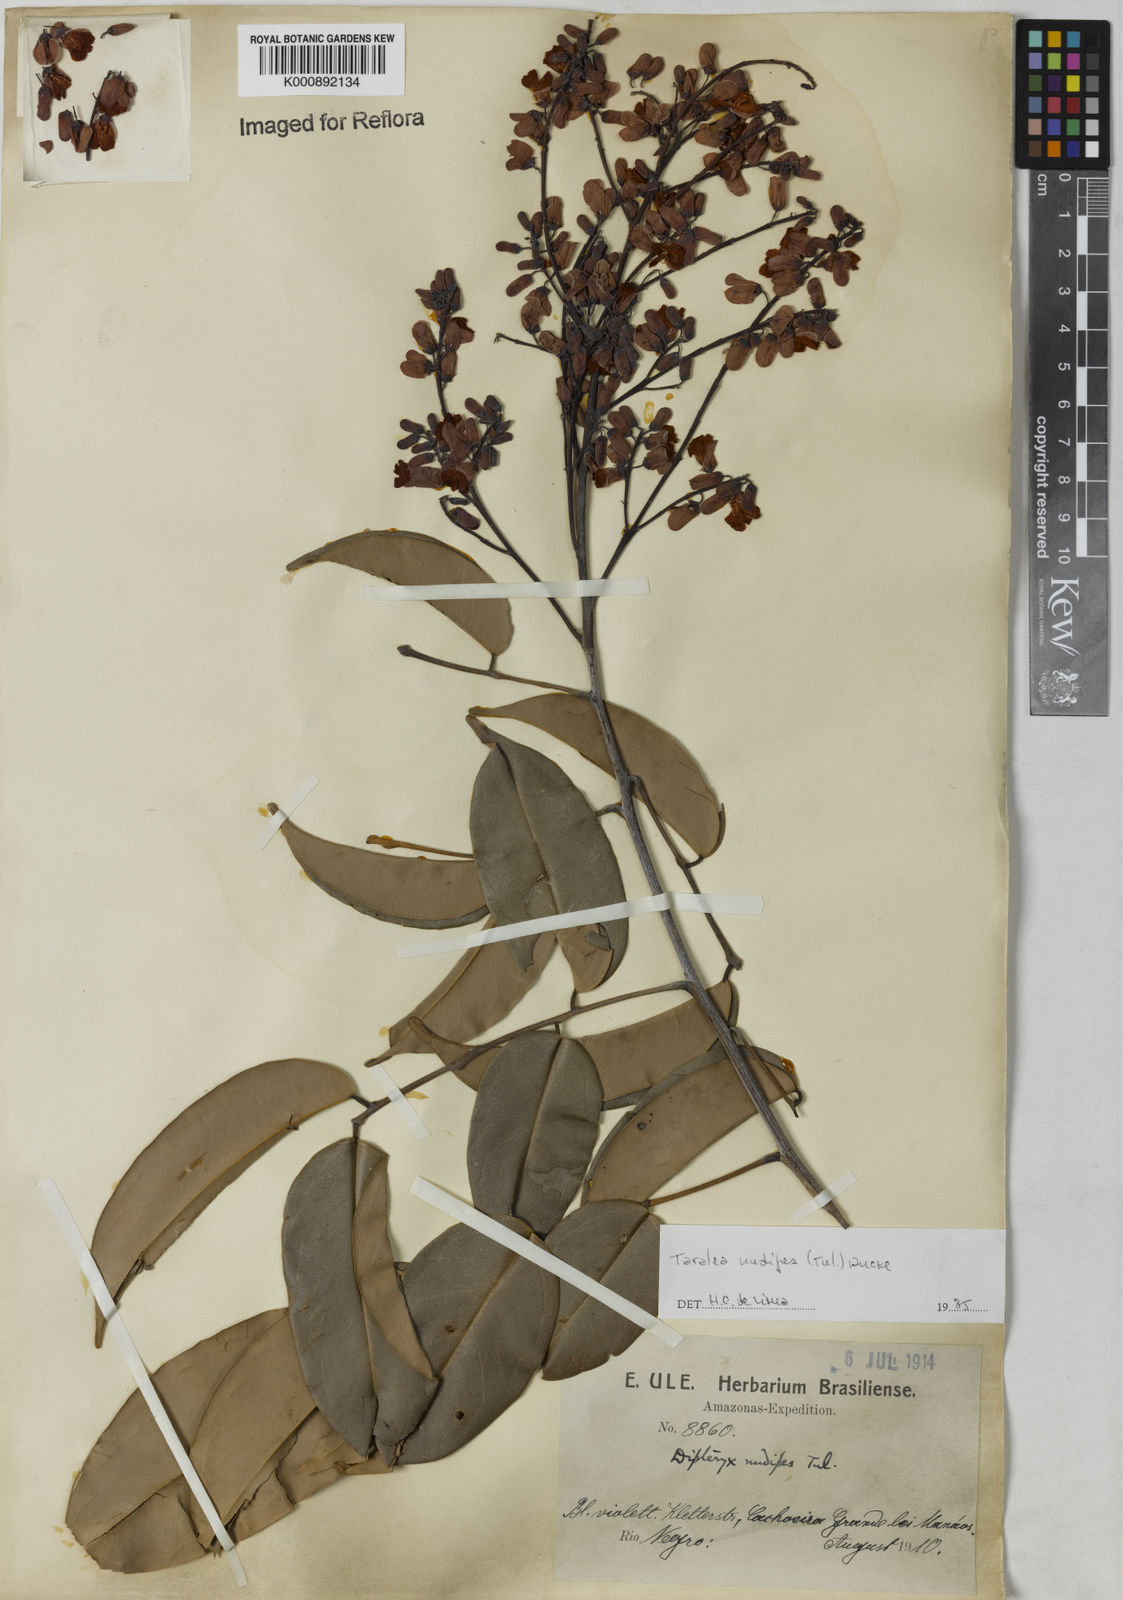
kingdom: Plantae
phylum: Tracheophyta
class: Magnoliopsida
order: Fabales
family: Fabaceae
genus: Taralea
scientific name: Taralea nudipes
